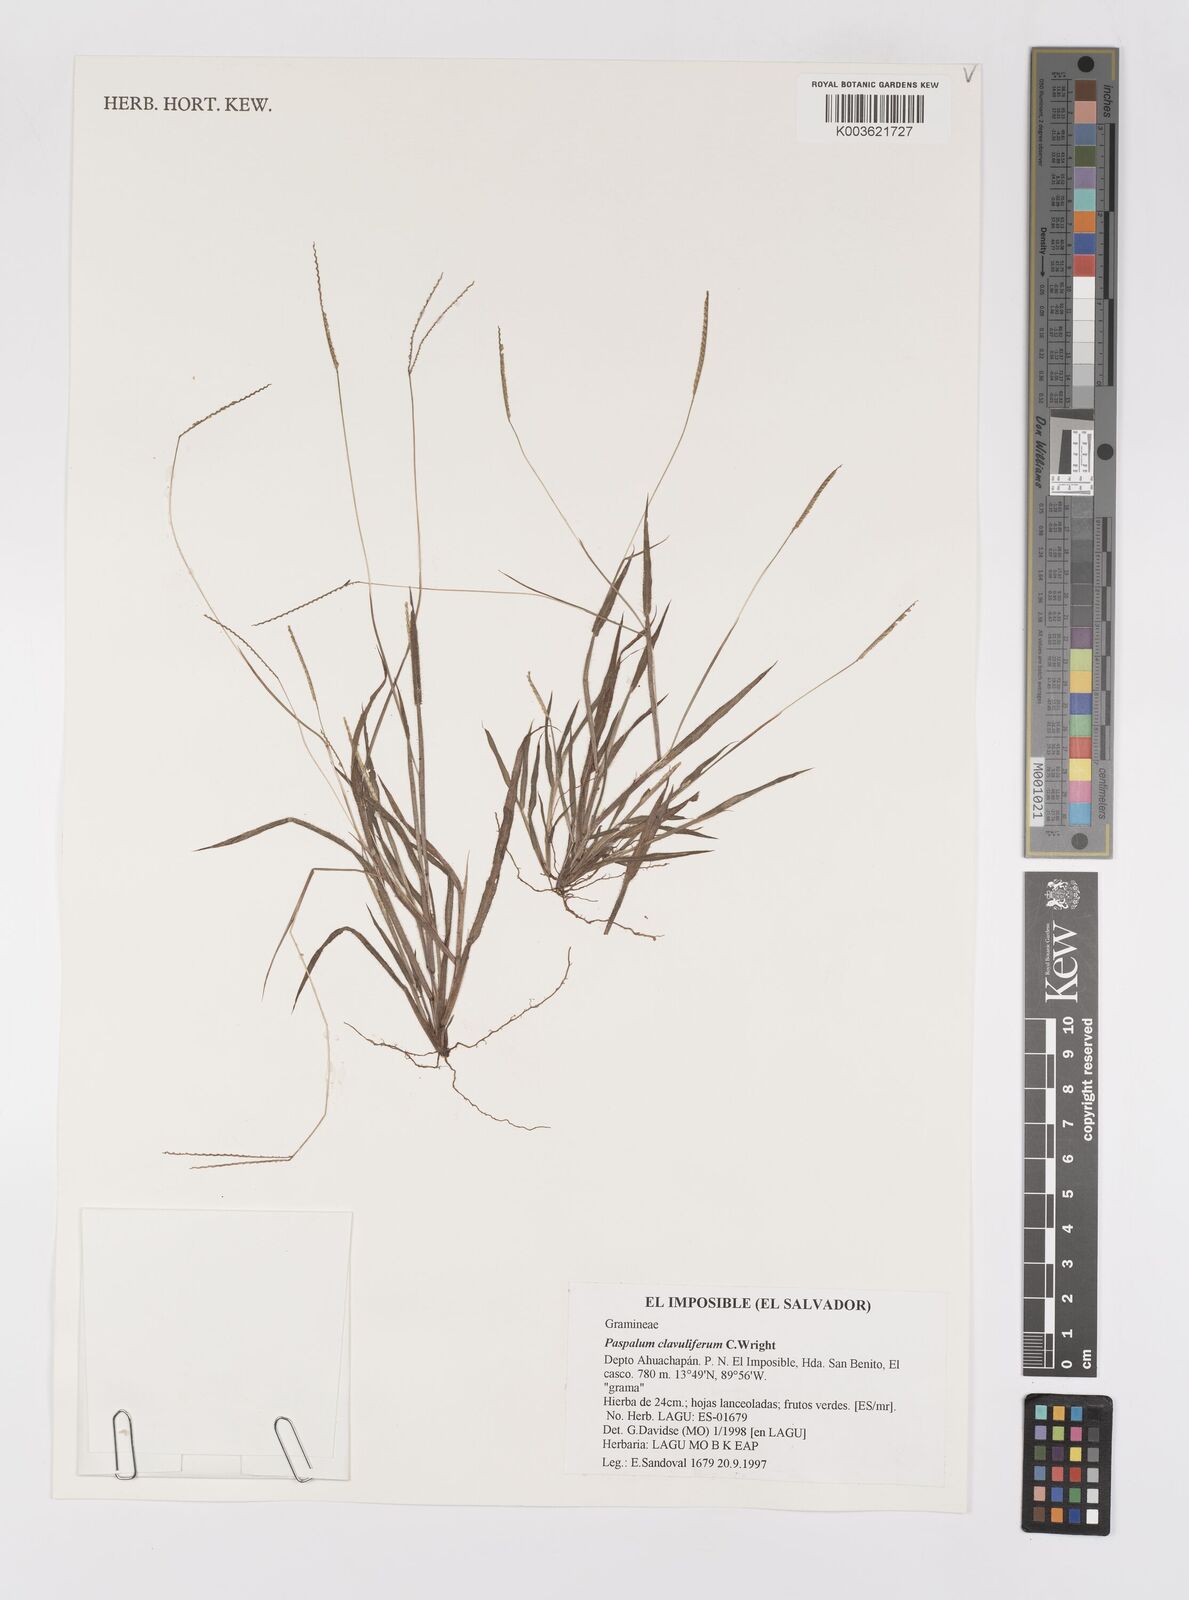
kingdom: Plantae
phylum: Tracheophyta
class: Liliopsida
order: Poales
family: Poaceae
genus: Paspalum
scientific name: Paspalum clavuliferum
